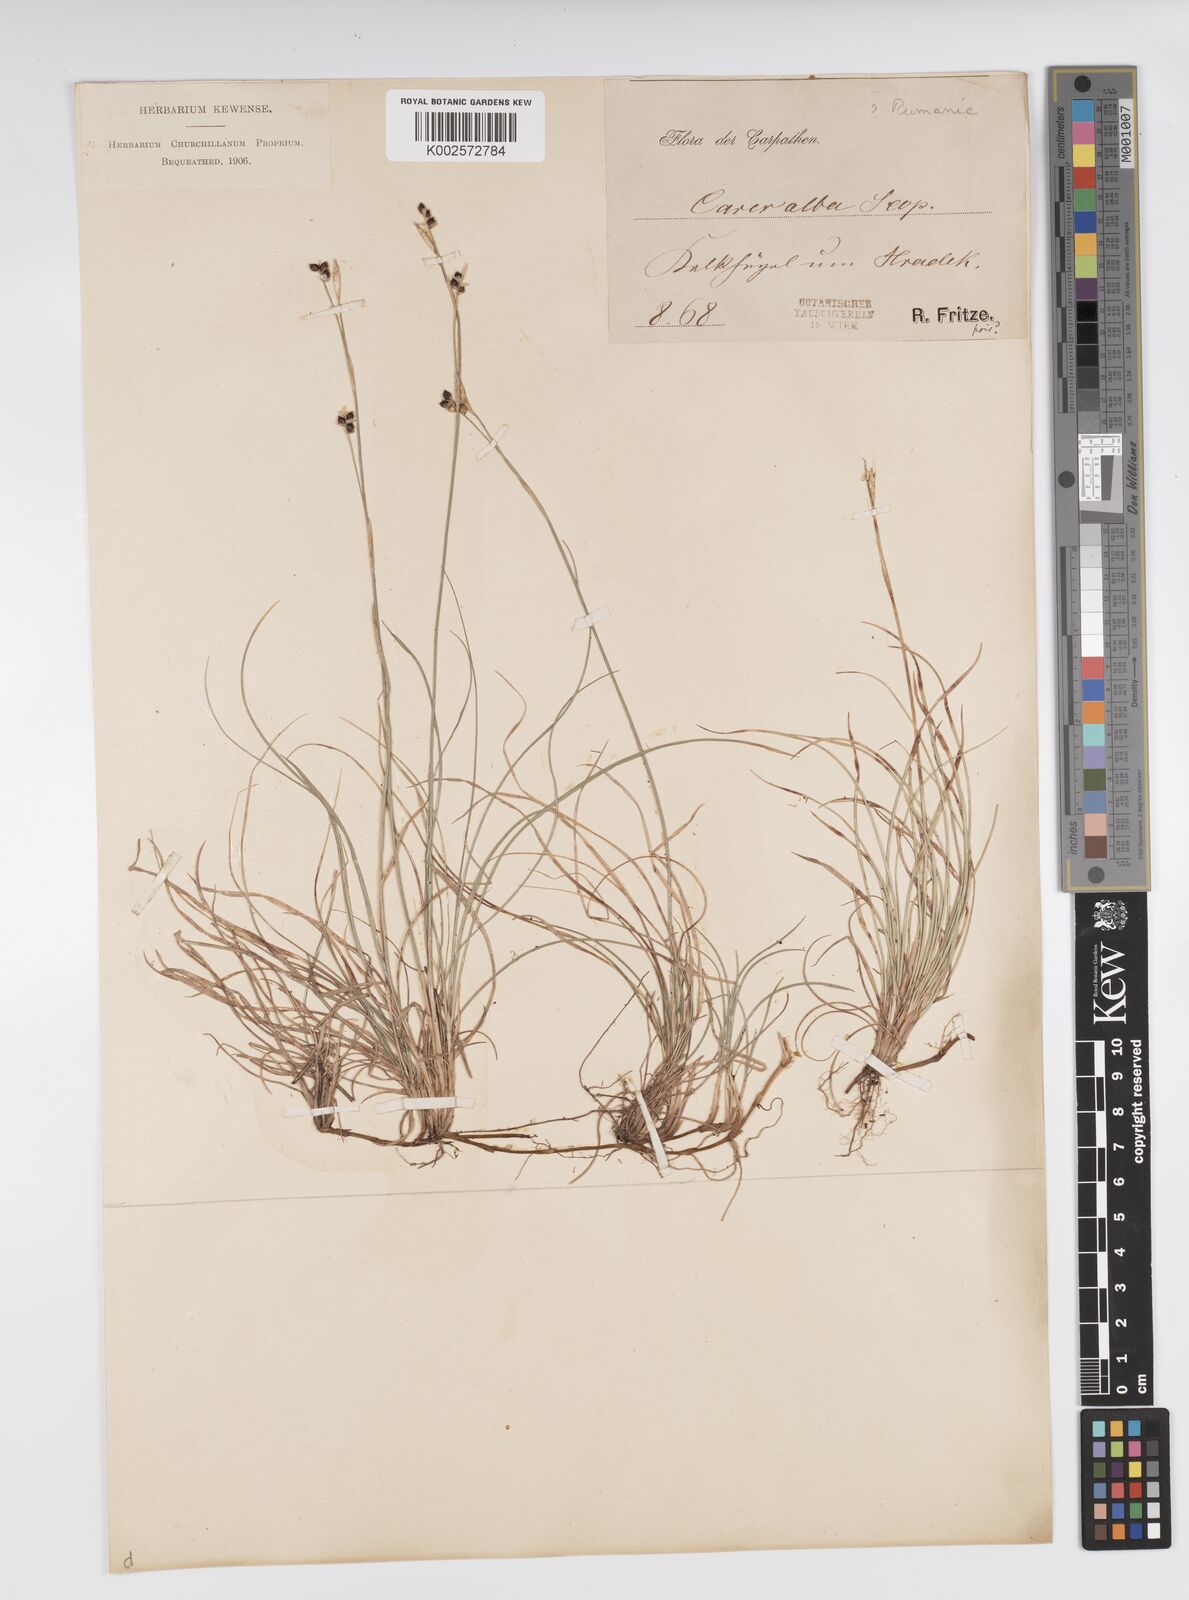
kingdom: Plantae
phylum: Tracheophyta
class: Liliopsida
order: Poales
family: Cyperaceae
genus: Carex
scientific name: Carex alba
